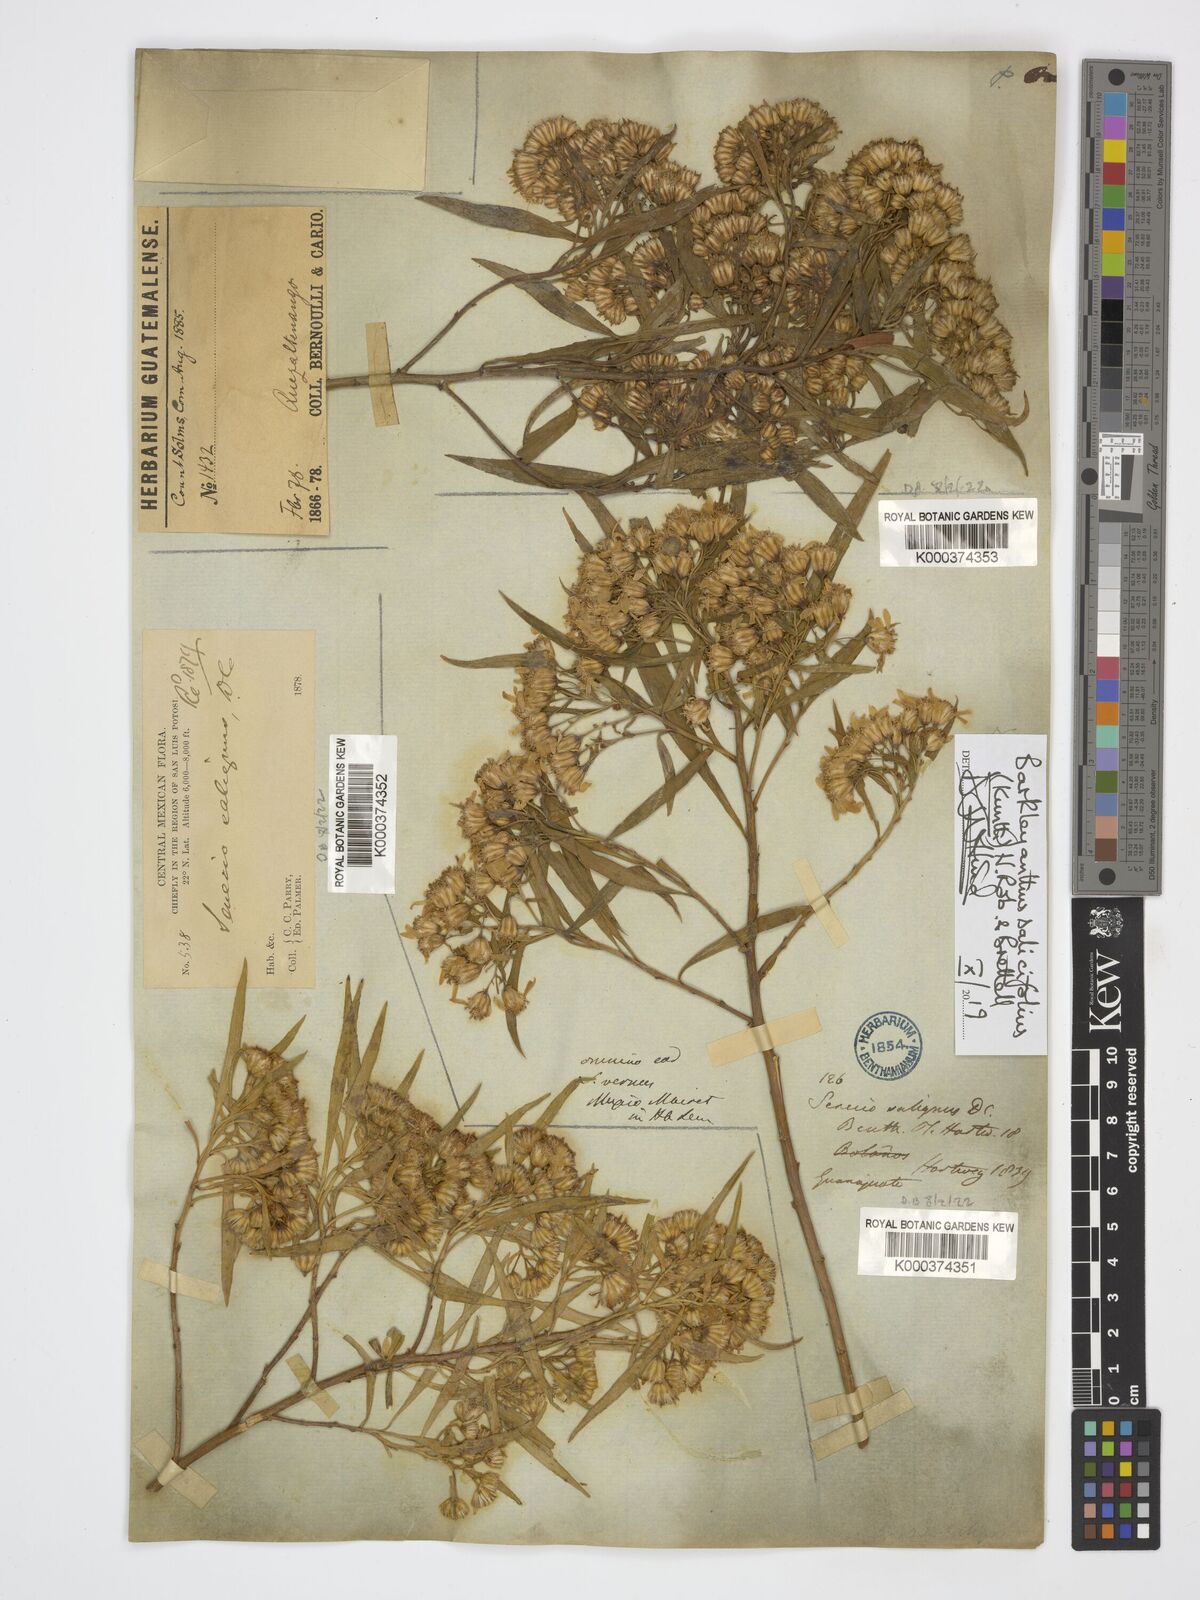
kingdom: Plantae
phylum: Tracheophyta
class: Magnoliopsida
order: Asterales
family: Asteraceae
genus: Barkleyanthus
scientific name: Barkleyanthus salicifolius
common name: Willow ragwort
